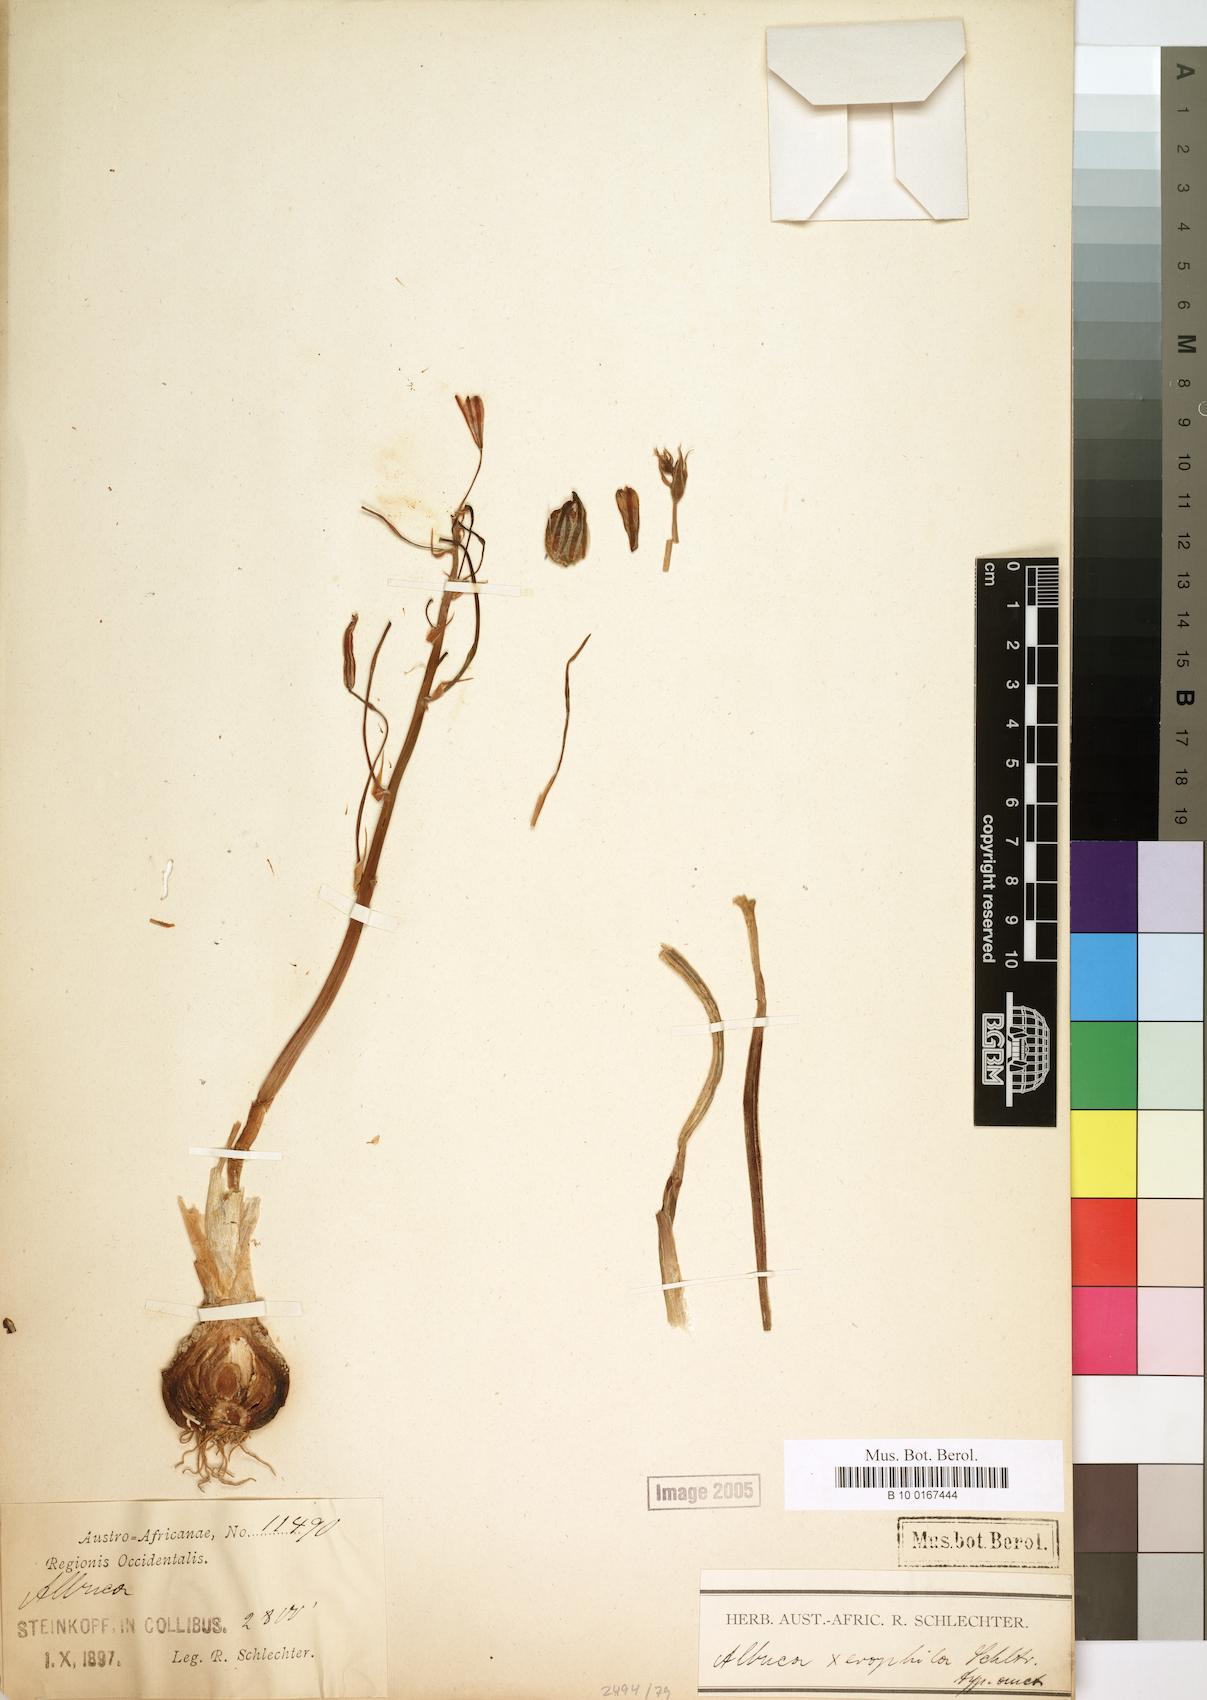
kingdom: Plantae
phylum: Tracheophyta
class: Liliopsida
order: Asparagales
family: Asparagaceae
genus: Albuca
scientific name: Albuca
